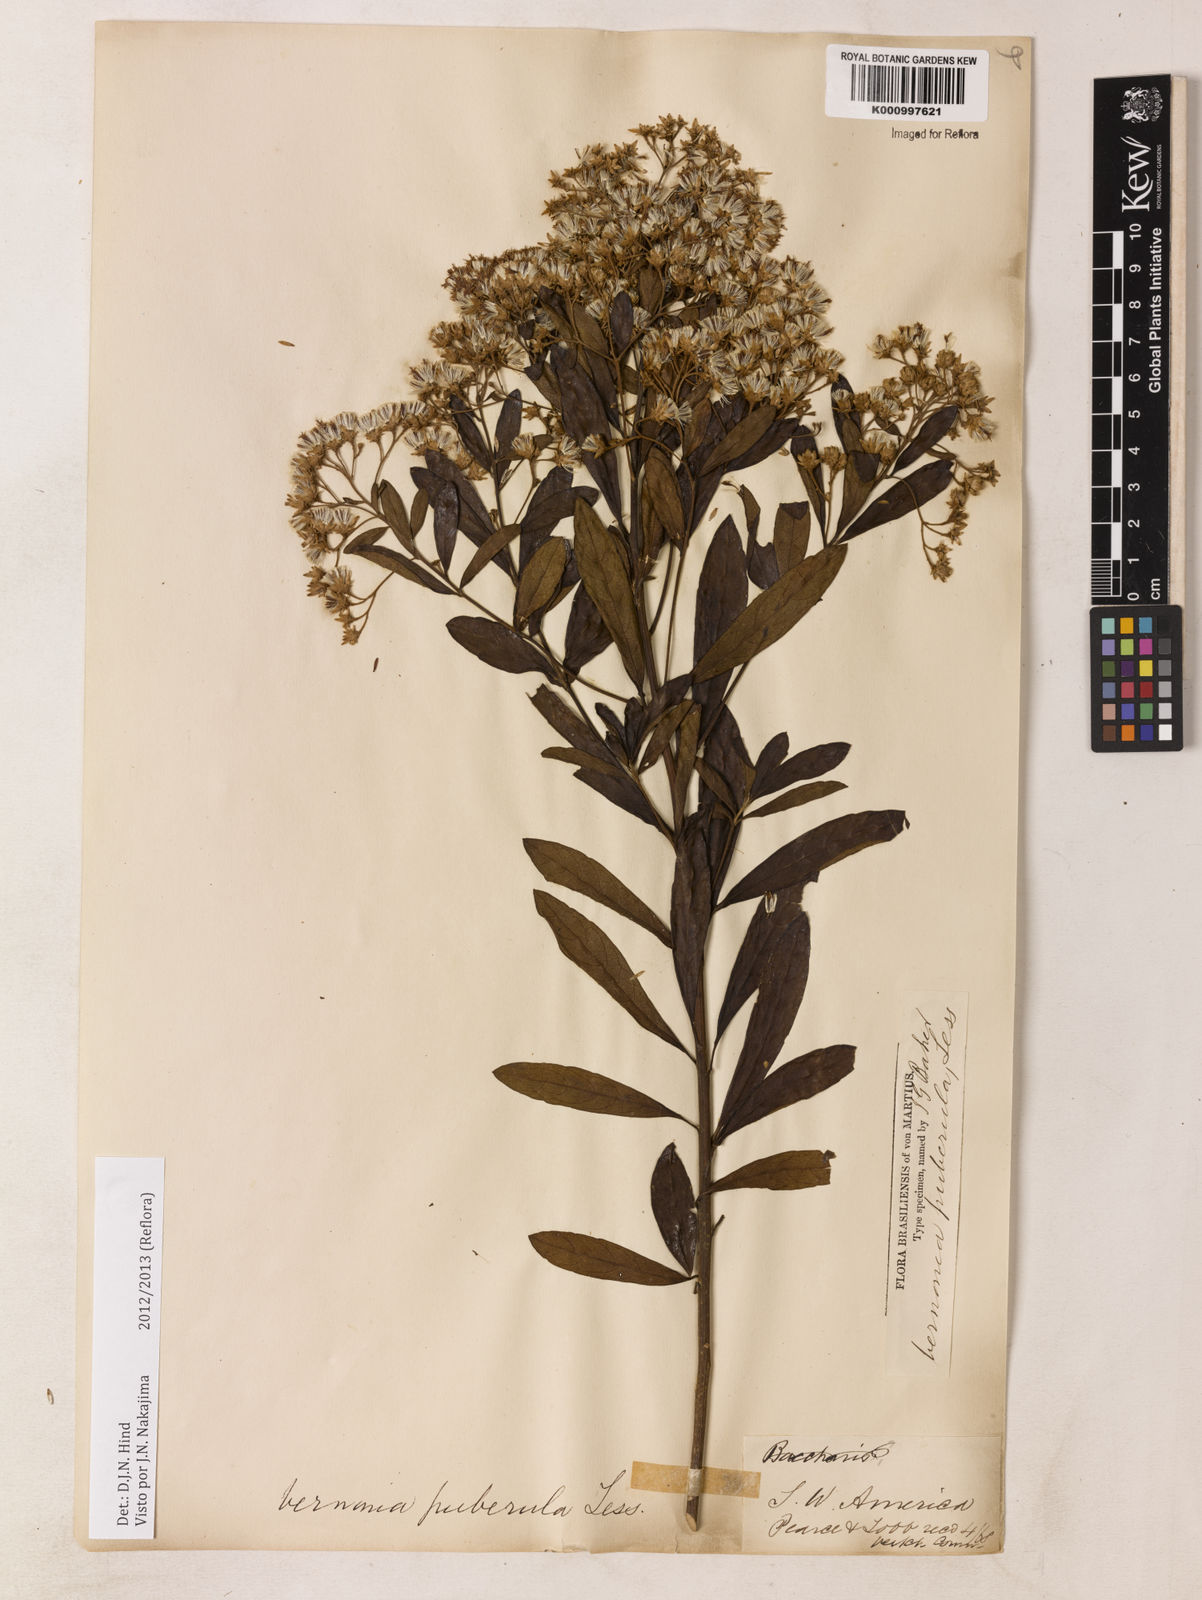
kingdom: Plantae
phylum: Tracheophyta
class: Magnoliopsida
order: Asterales
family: Asteraceae
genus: Vernonanthura
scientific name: Vernonanthura puberula
